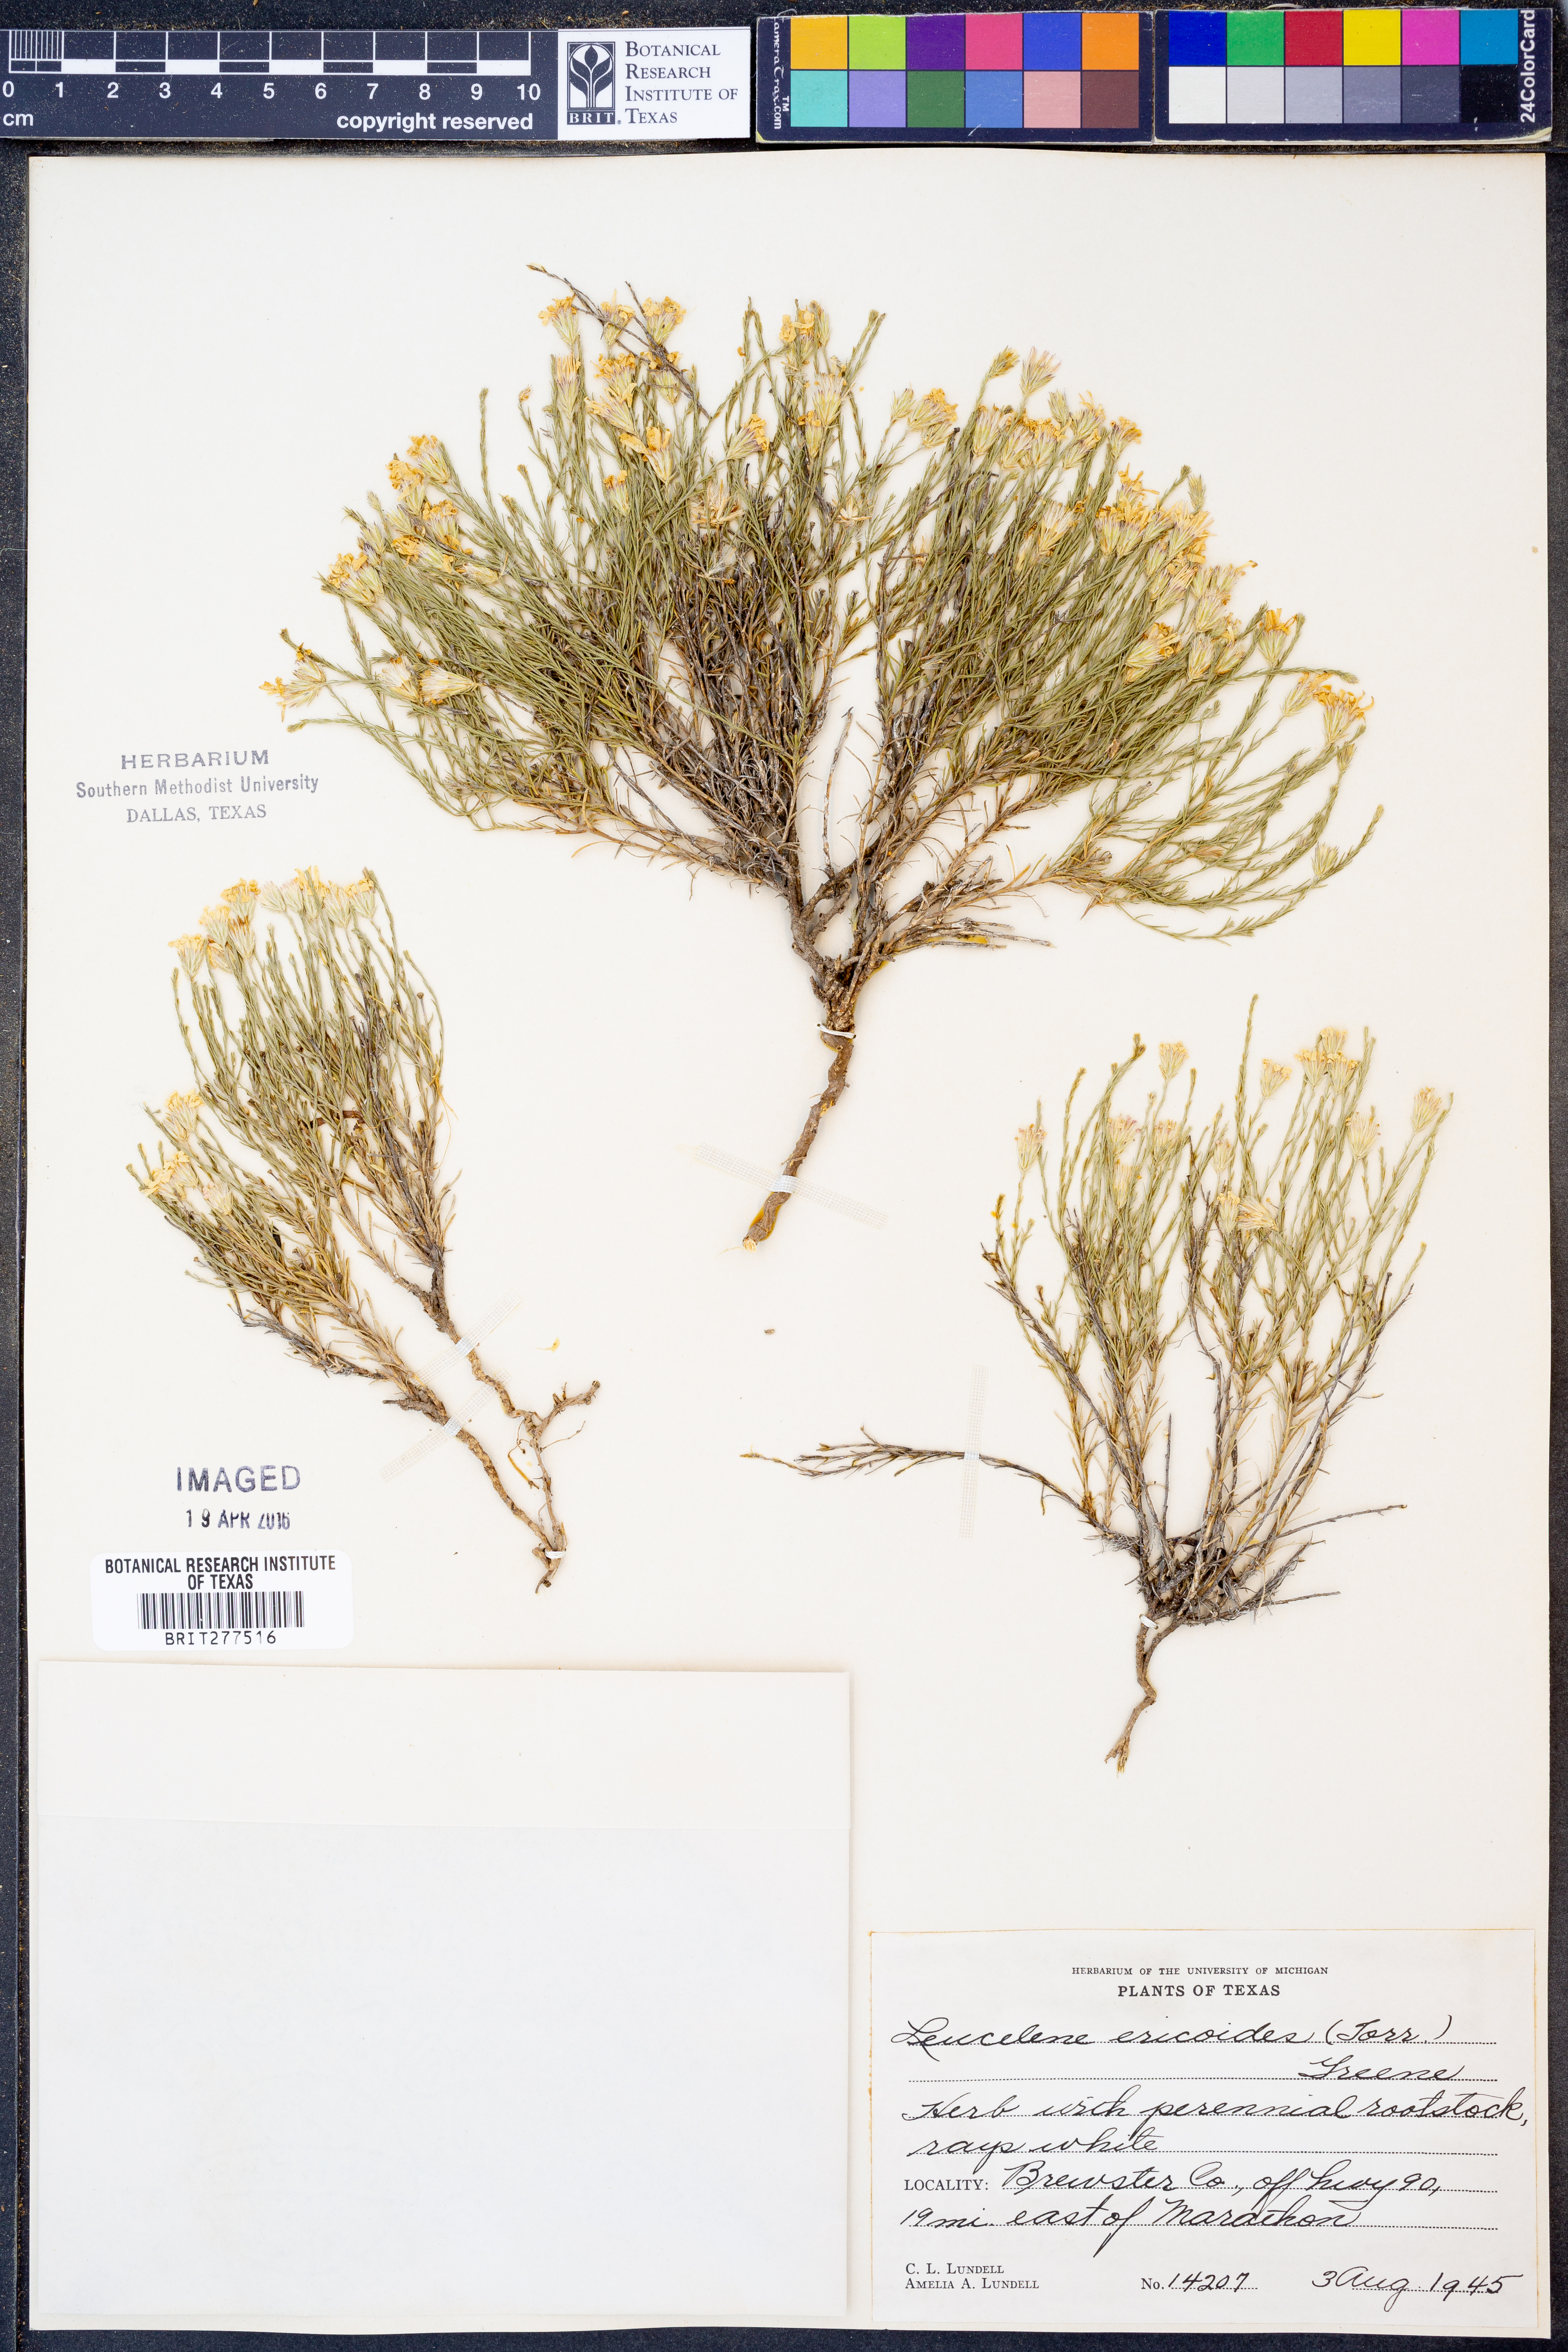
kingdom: Plantae
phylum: Tracheophyta
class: Magnoliopsida
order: Asterales
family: Asteraceae
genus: Chaetopappa
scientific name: Chaetopappa ericoides
